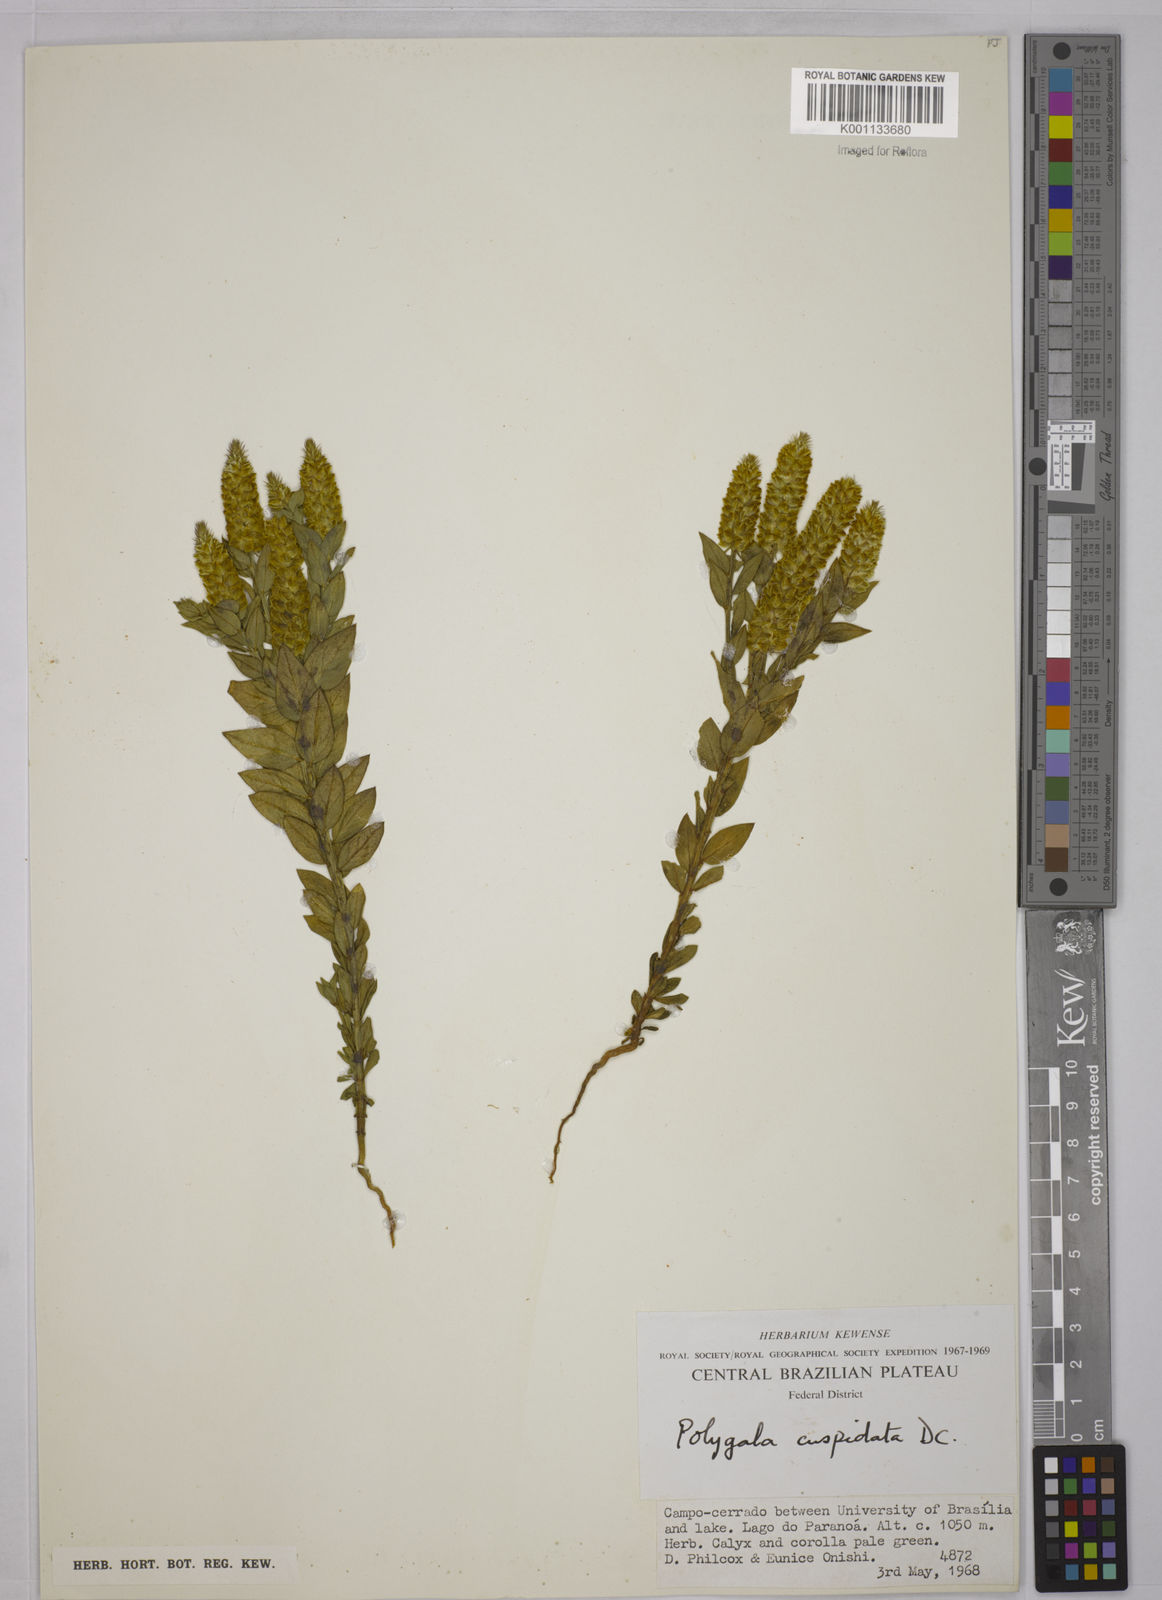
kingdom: Plantae
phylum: Tracheophyta
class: Magnoliopsida
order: Fabales
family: Polygalaceae
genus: Polygala
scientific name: Polygala cuspidata
